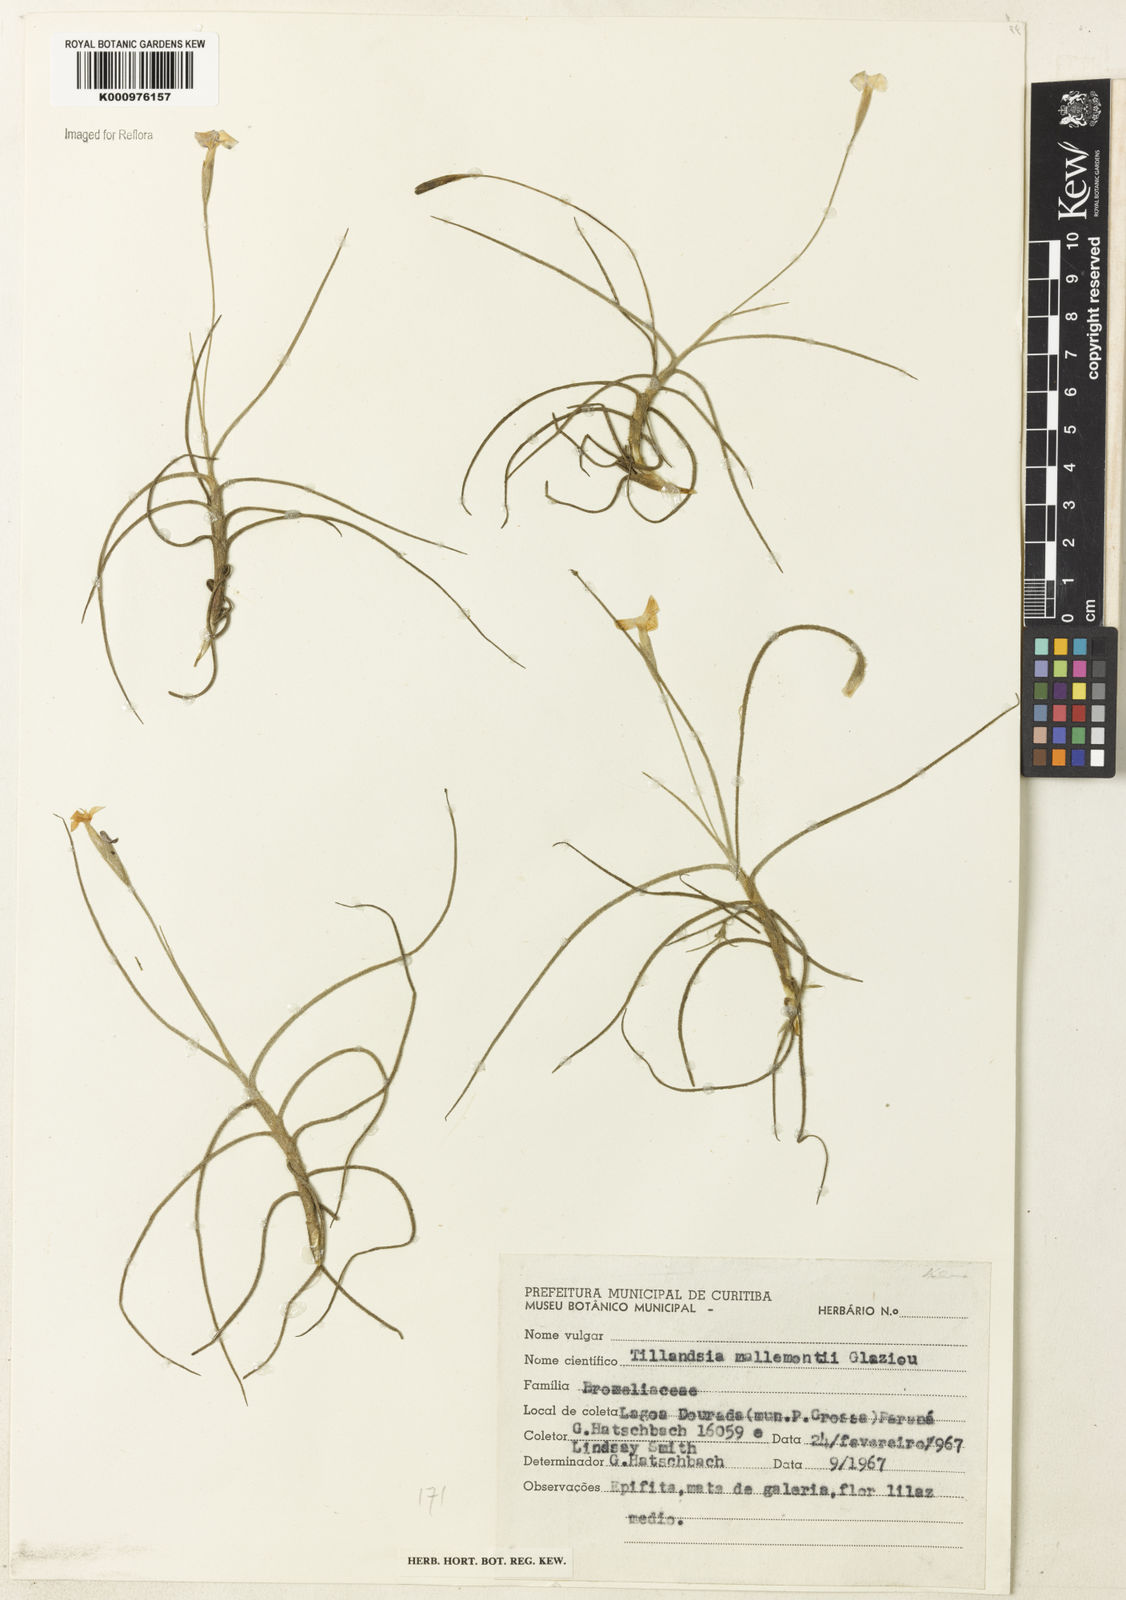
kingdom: Plantae
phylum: Tracheophyta
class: Liliopsida
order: Poales
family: Bromeliaceae
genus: Tillandsia
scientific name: Tillandsia mallemontii
